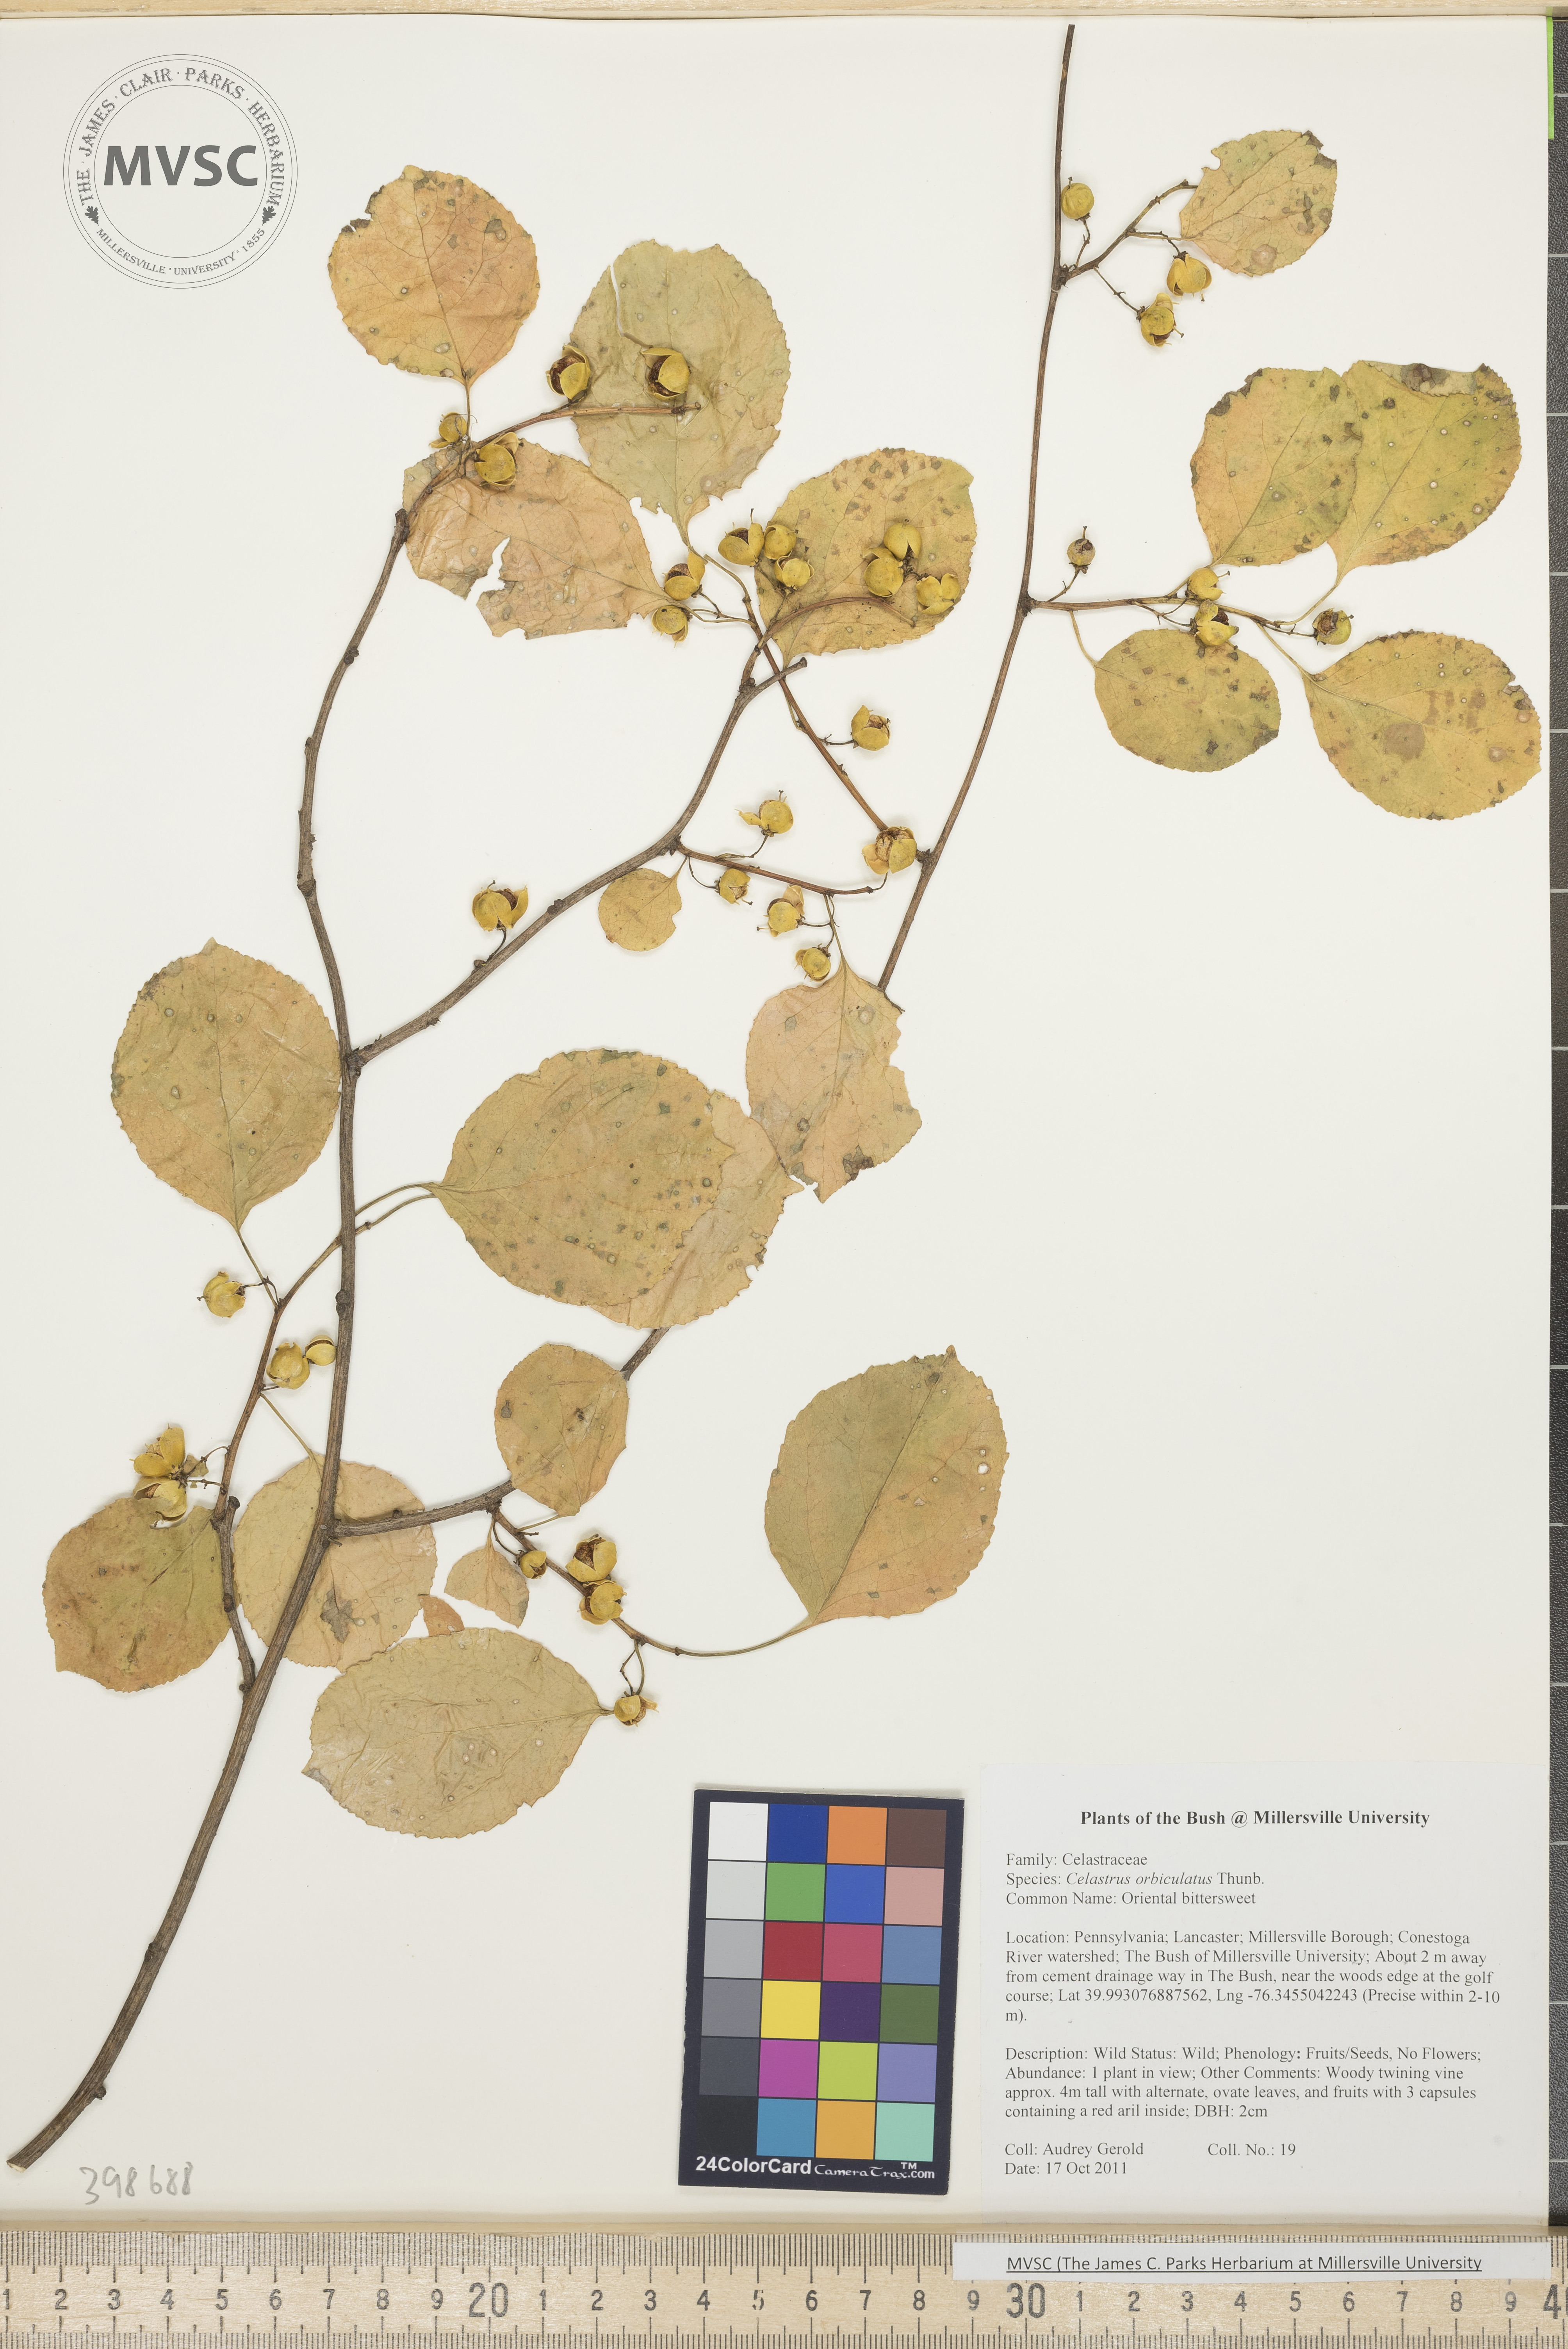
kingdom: Plantae
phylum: Tracheophyta
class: Magnoliopsida
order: Celastrales
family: Celastraceae
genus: Celastrus
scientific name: Celastrus orbiculatus
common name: Oriental bittersweet
